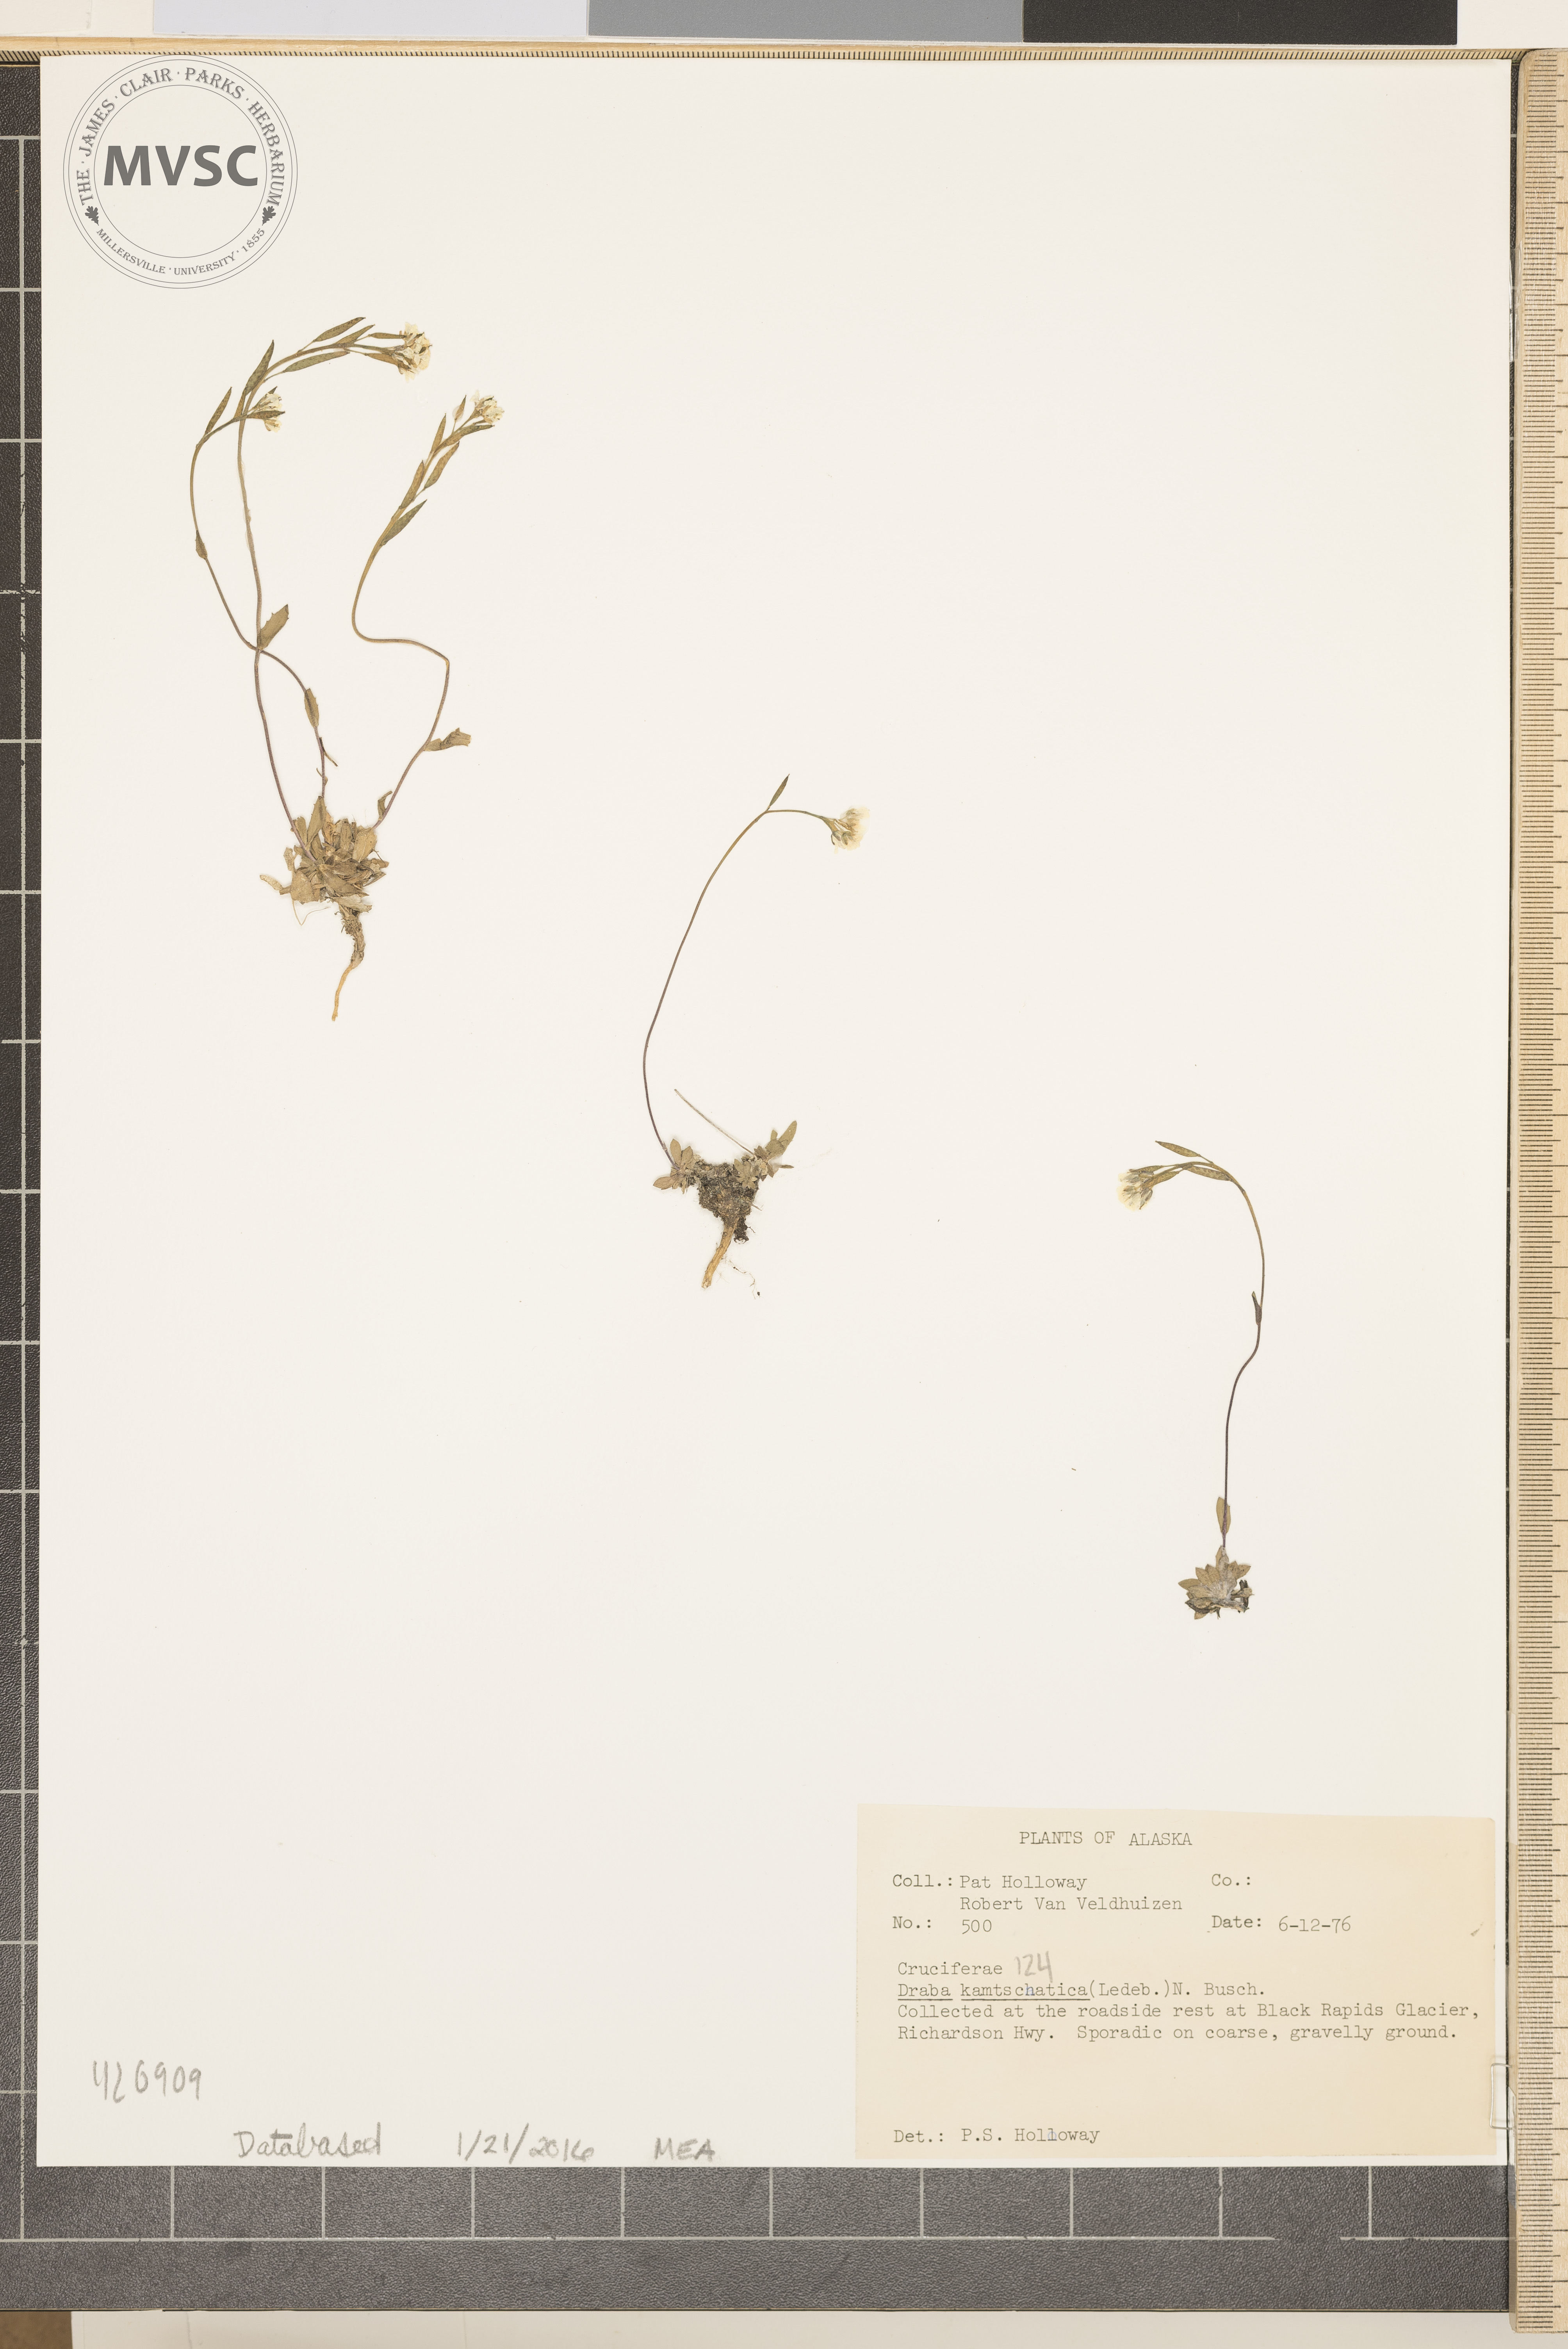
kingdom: Plantae
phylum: Tracheophyta
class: Magnoliopsida
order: Brassicales
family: Brassicaceae
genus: Draba
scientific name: Draba chamissonis
